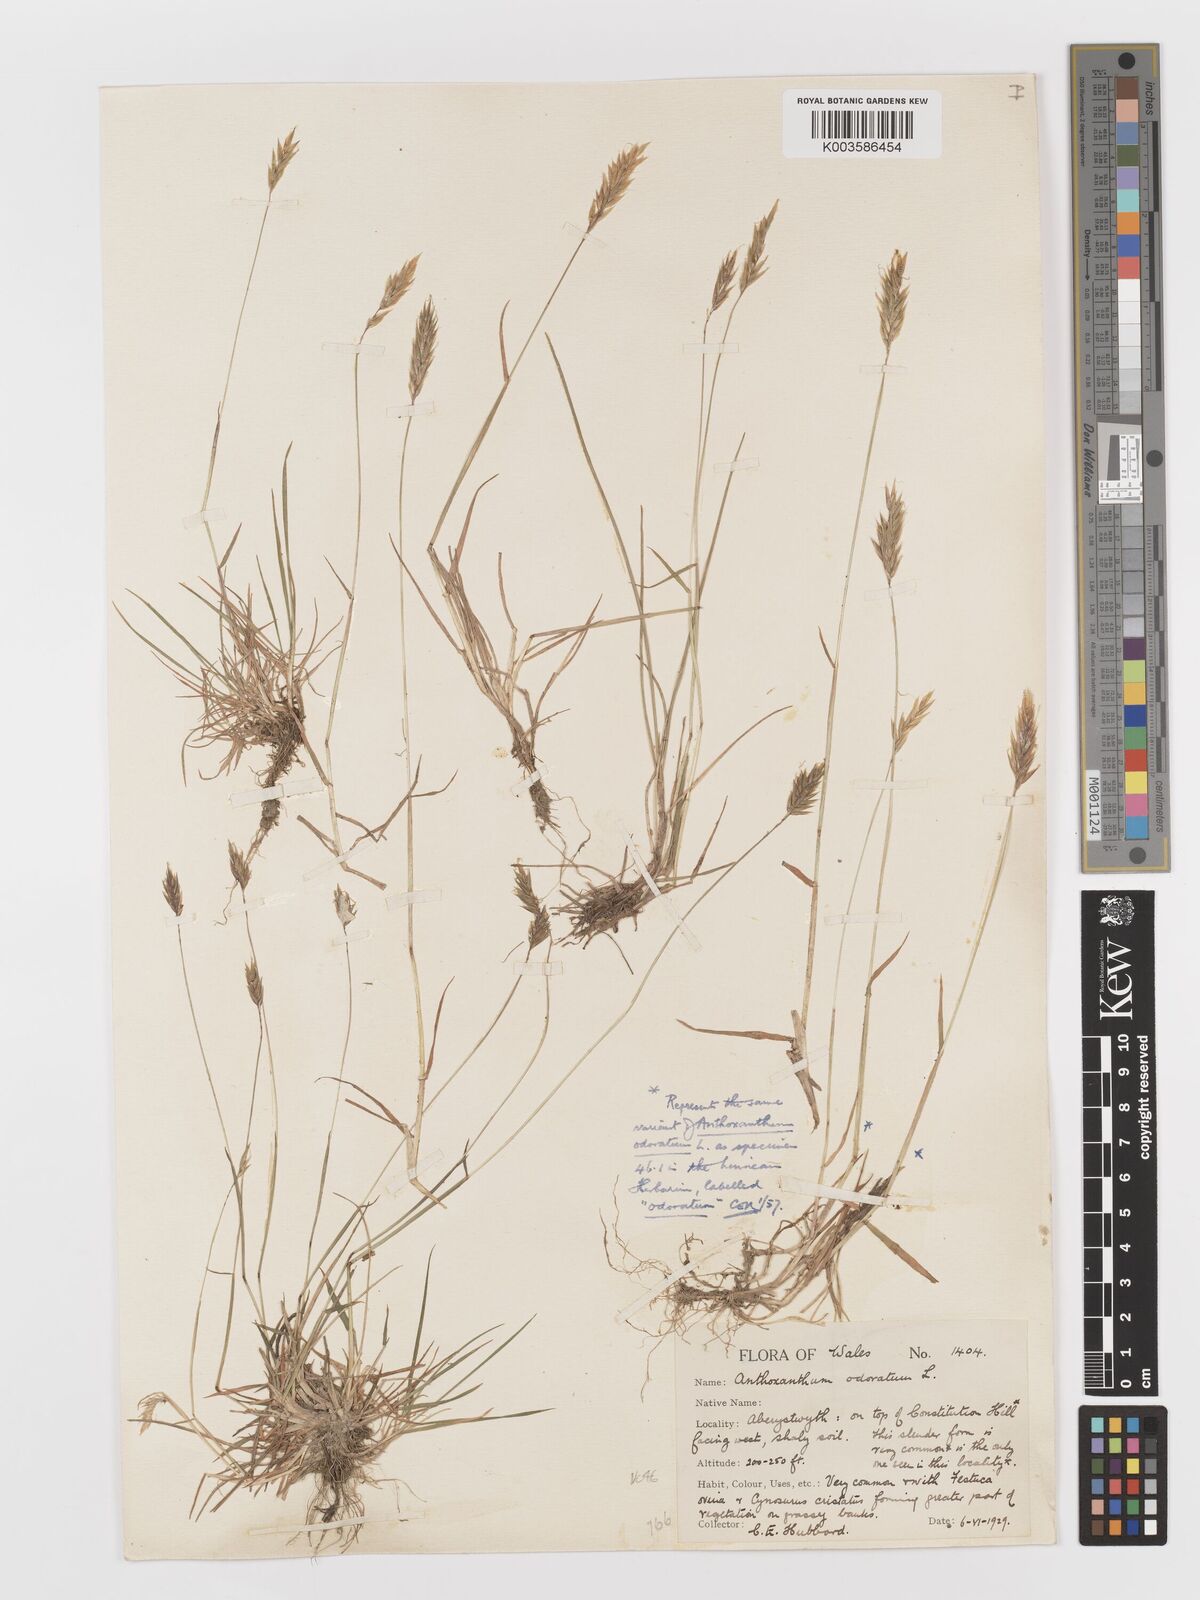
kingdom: Plantae
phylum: Tracheophyta
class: Liliopsida
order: Poales
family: Poaceae
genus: Anthoxanthum
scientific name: Anthoxanthum odoratum
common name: Sweet vernalgrass
